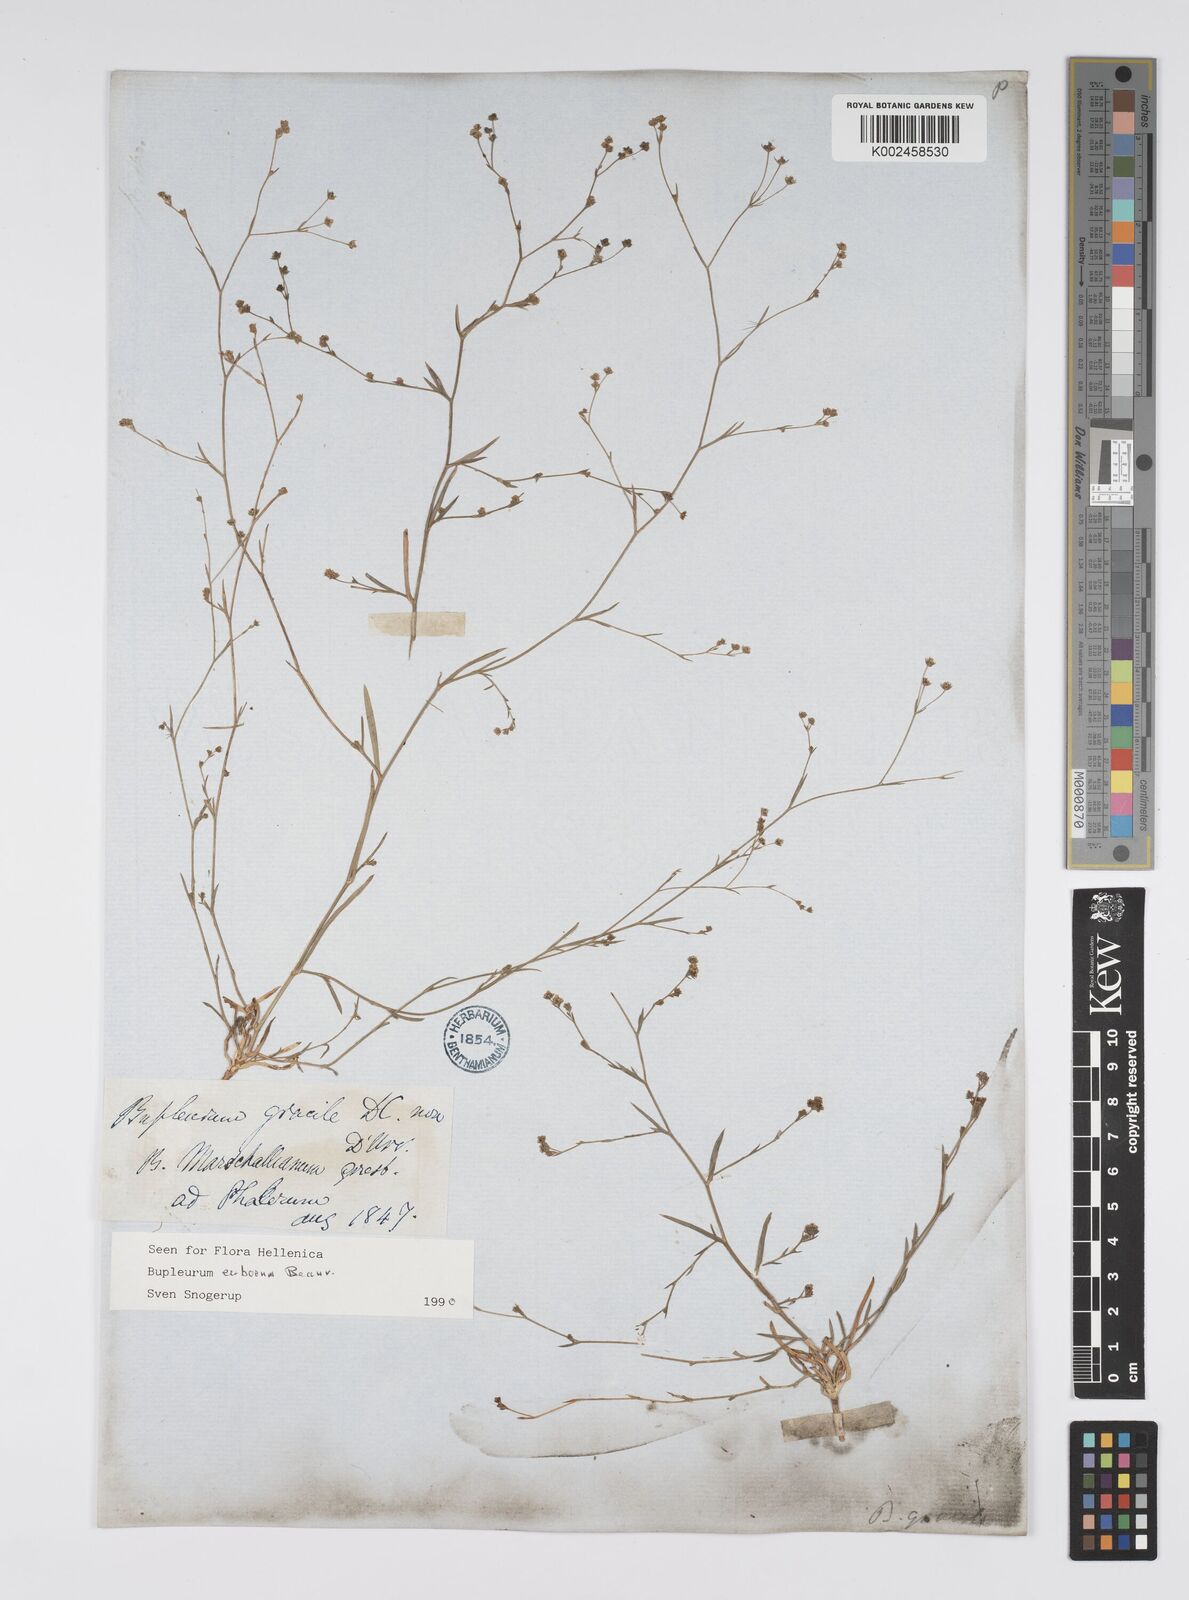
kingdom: Plantae
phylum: Tracheophyta
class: Magnoliopsida
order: Apiales
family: Apiaceae
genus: Bupleurum
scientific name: Bupleurum tenuissimum
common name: Slender hare's-ear
